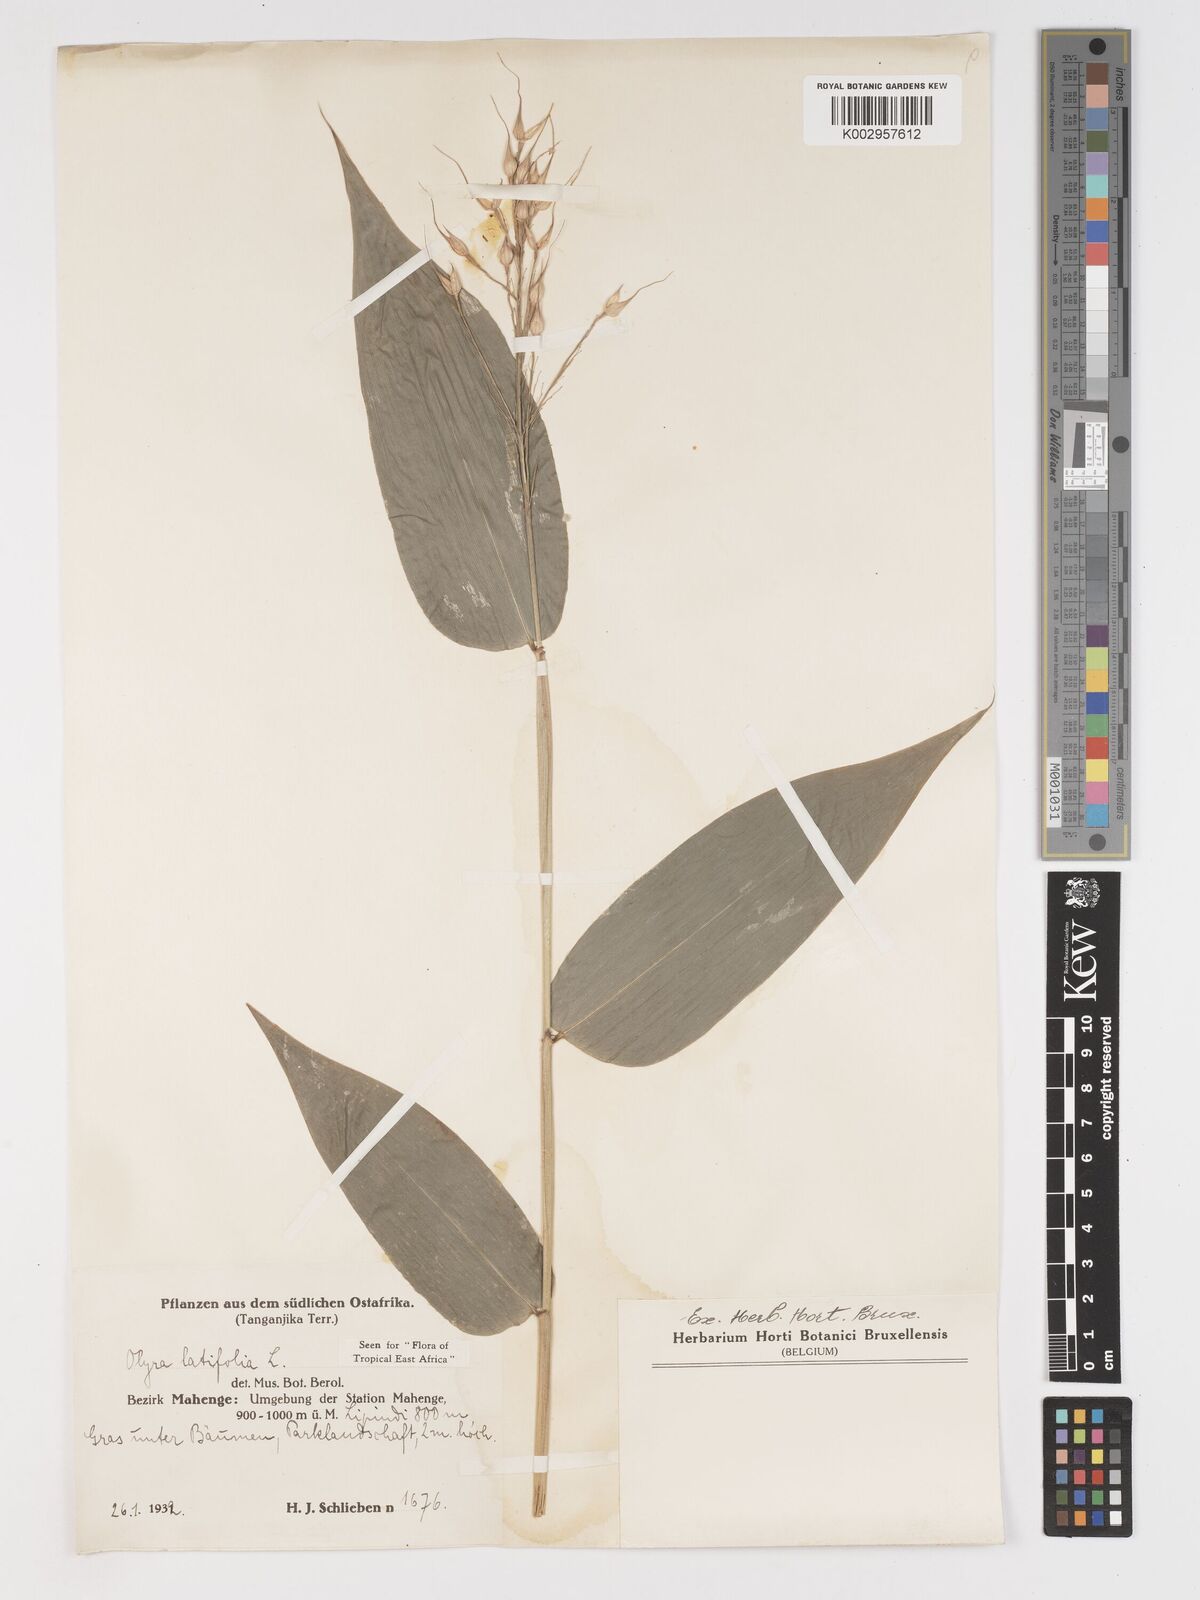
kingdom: Plantae
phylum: Tracheophyta
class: Liliopsida
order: Poales
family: Poaceae
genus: Olyra
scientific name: Olyra latifolia
